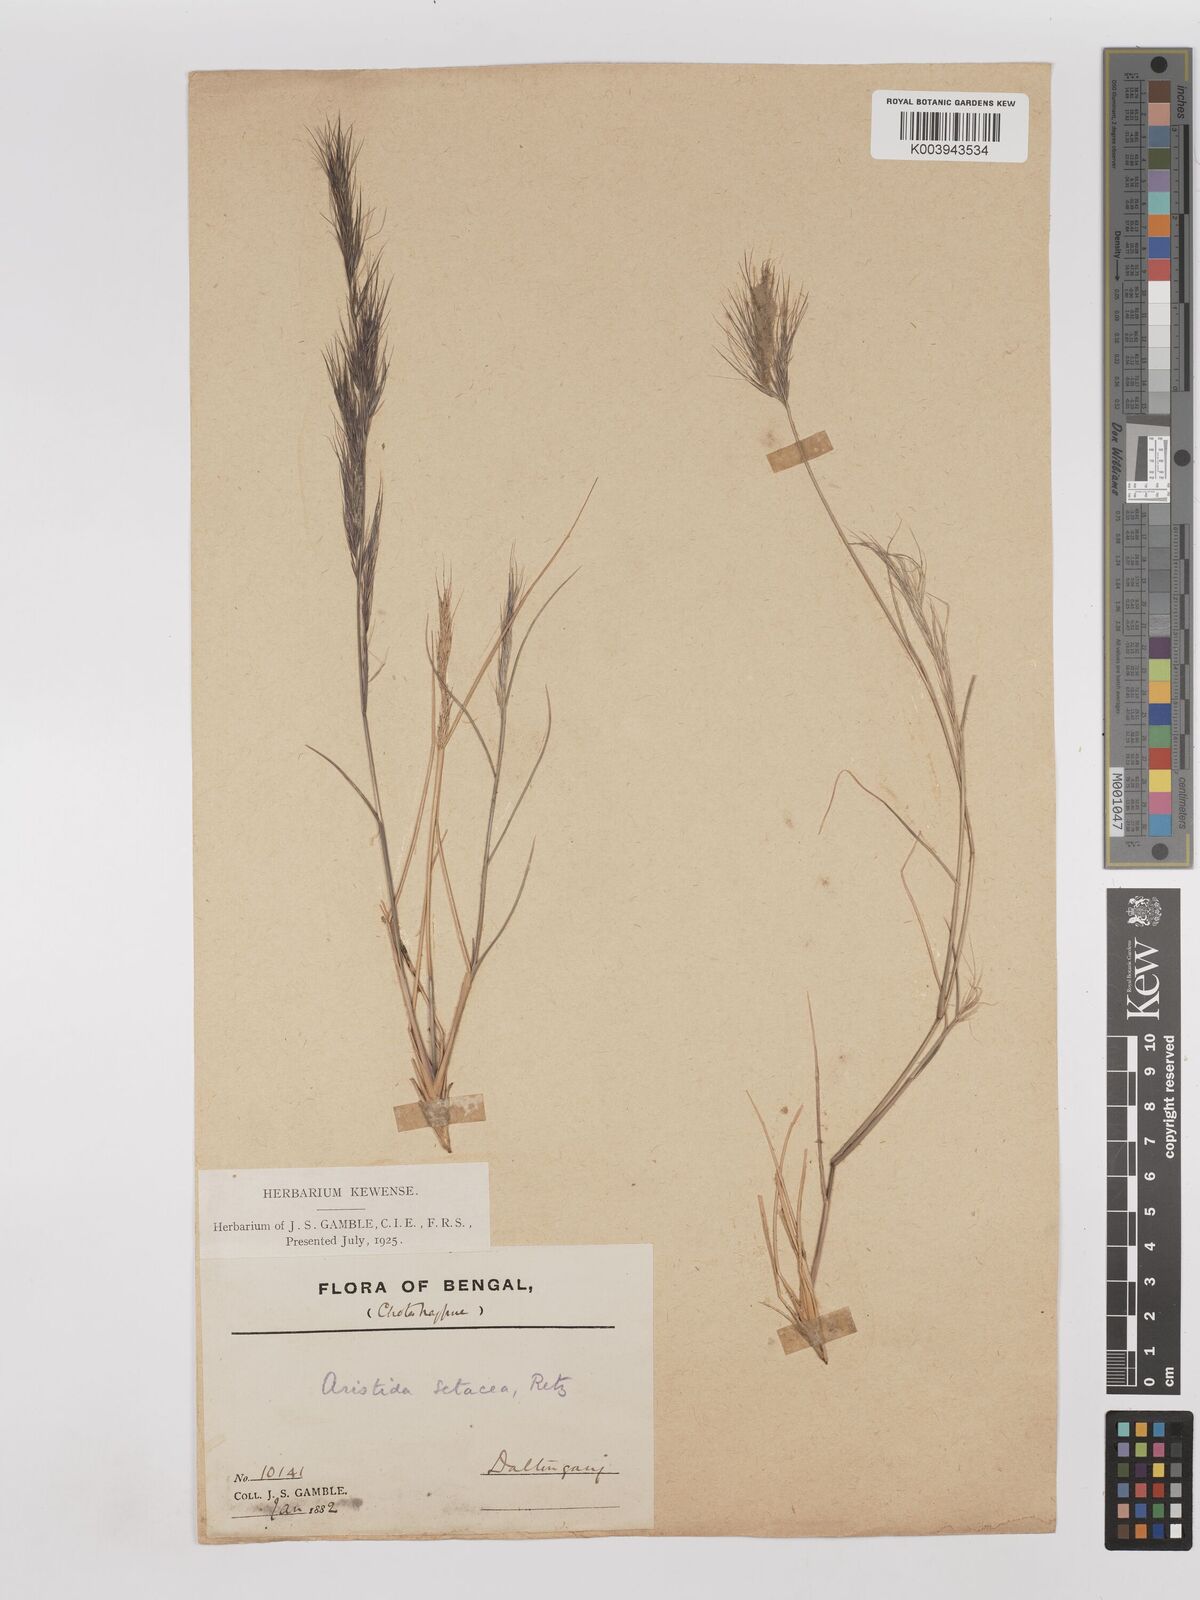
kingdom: Plantae
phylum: Tracheophyta
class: Liliopsida
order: Poales
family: Poaceae
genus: Aristida
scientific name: Aristida setacea
